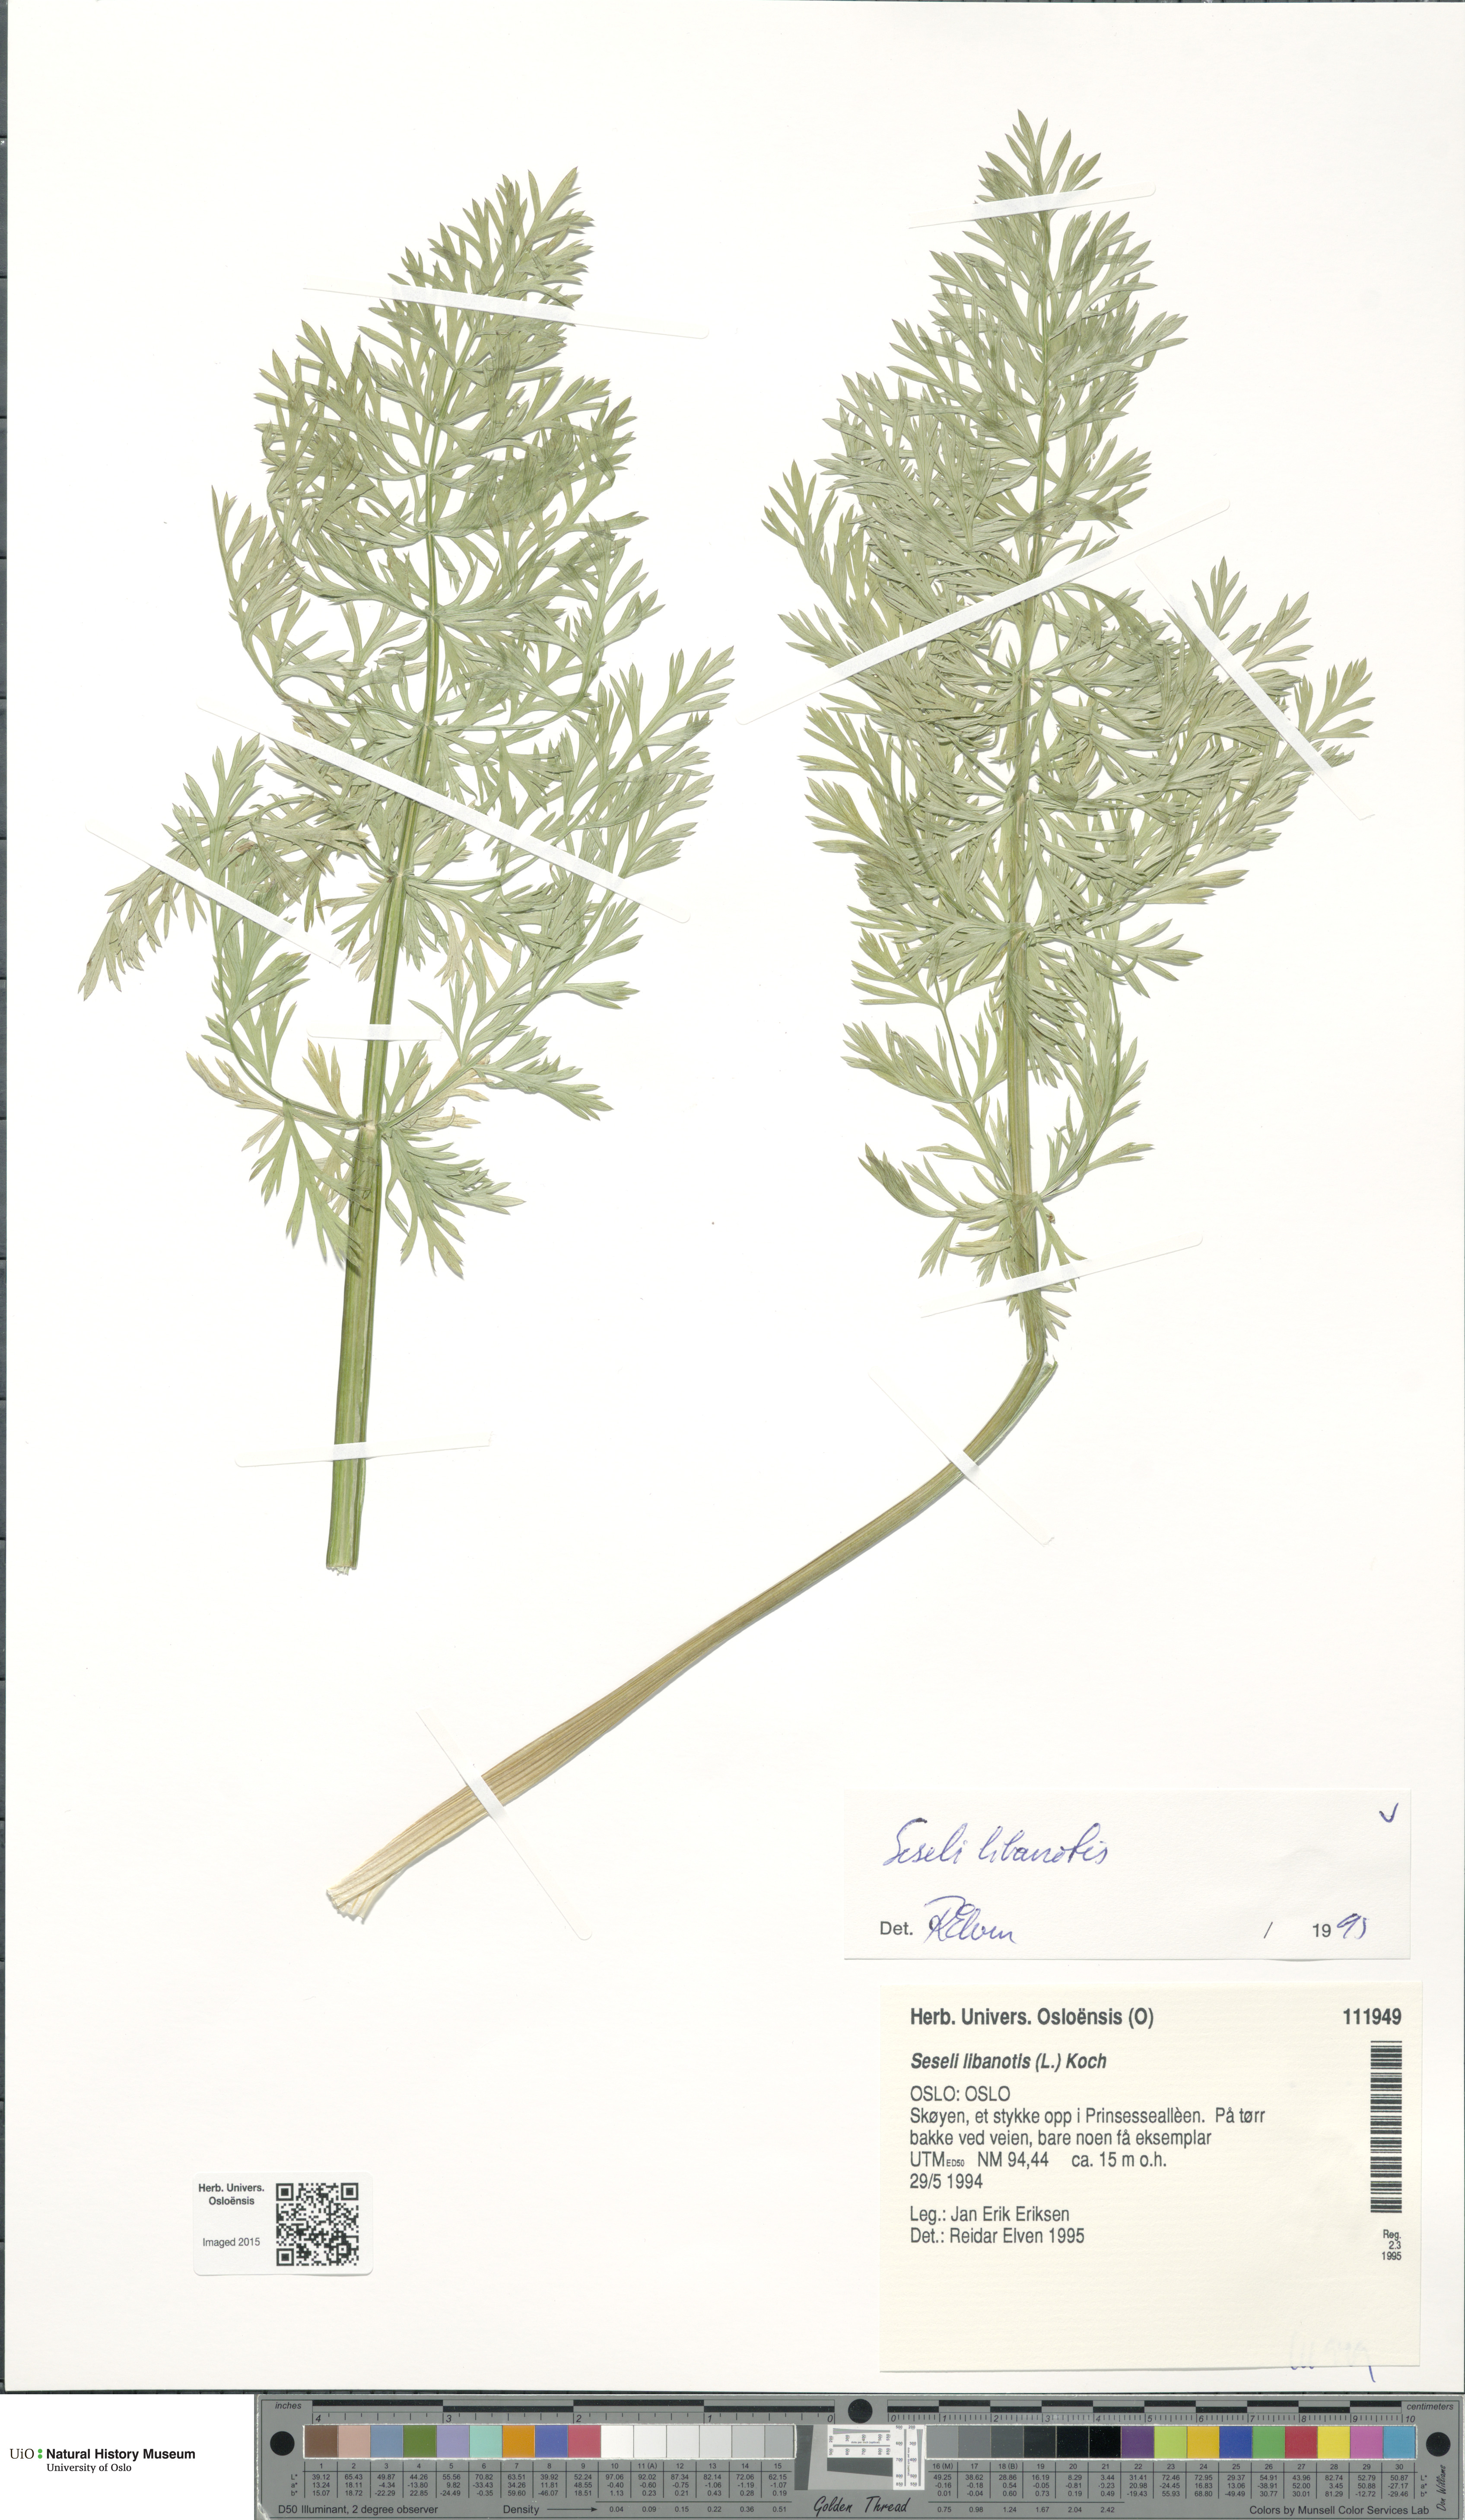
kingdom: Plantae
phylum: Tracheophyta
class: Magnoliopsida
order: Apiales
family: Apiaceae
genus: Seseli
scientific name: Seseli libanotis
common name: Mooncarrot
